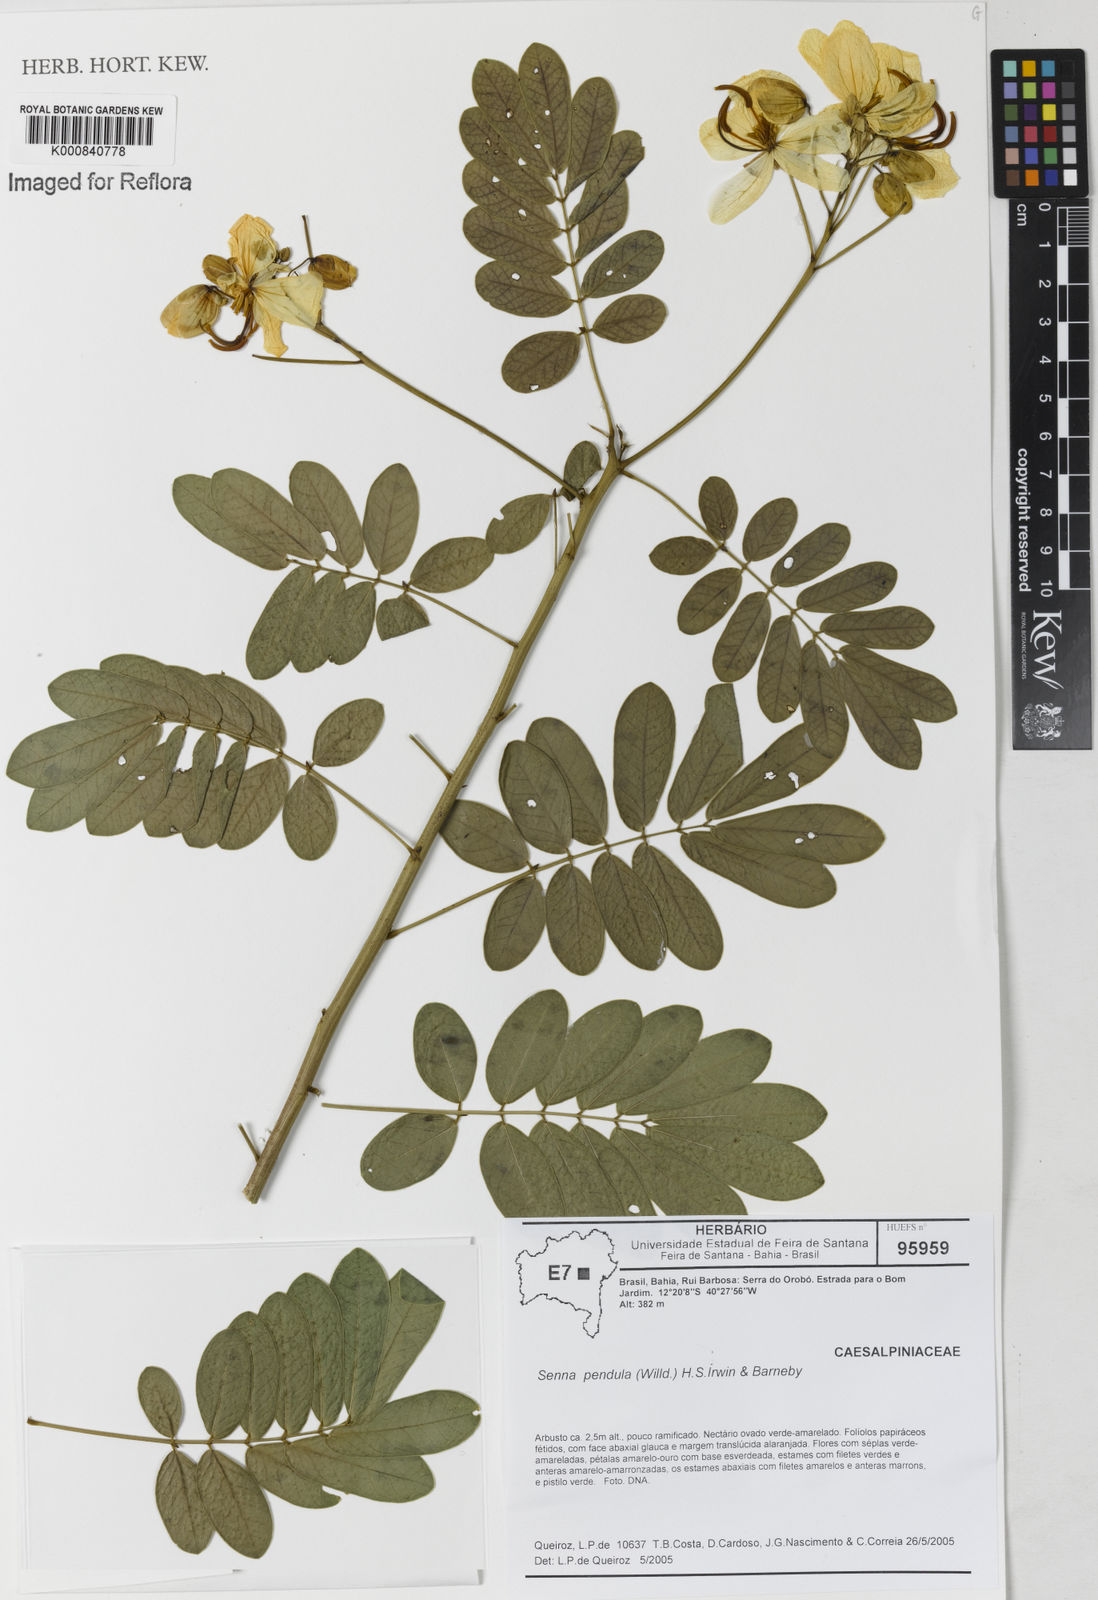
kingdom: Plantae
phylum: Tracheophyta
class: Magnoliopsida
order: Fabales
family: Fabaceae
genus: Senna
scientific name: Senna pendula
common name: Easter cassia
